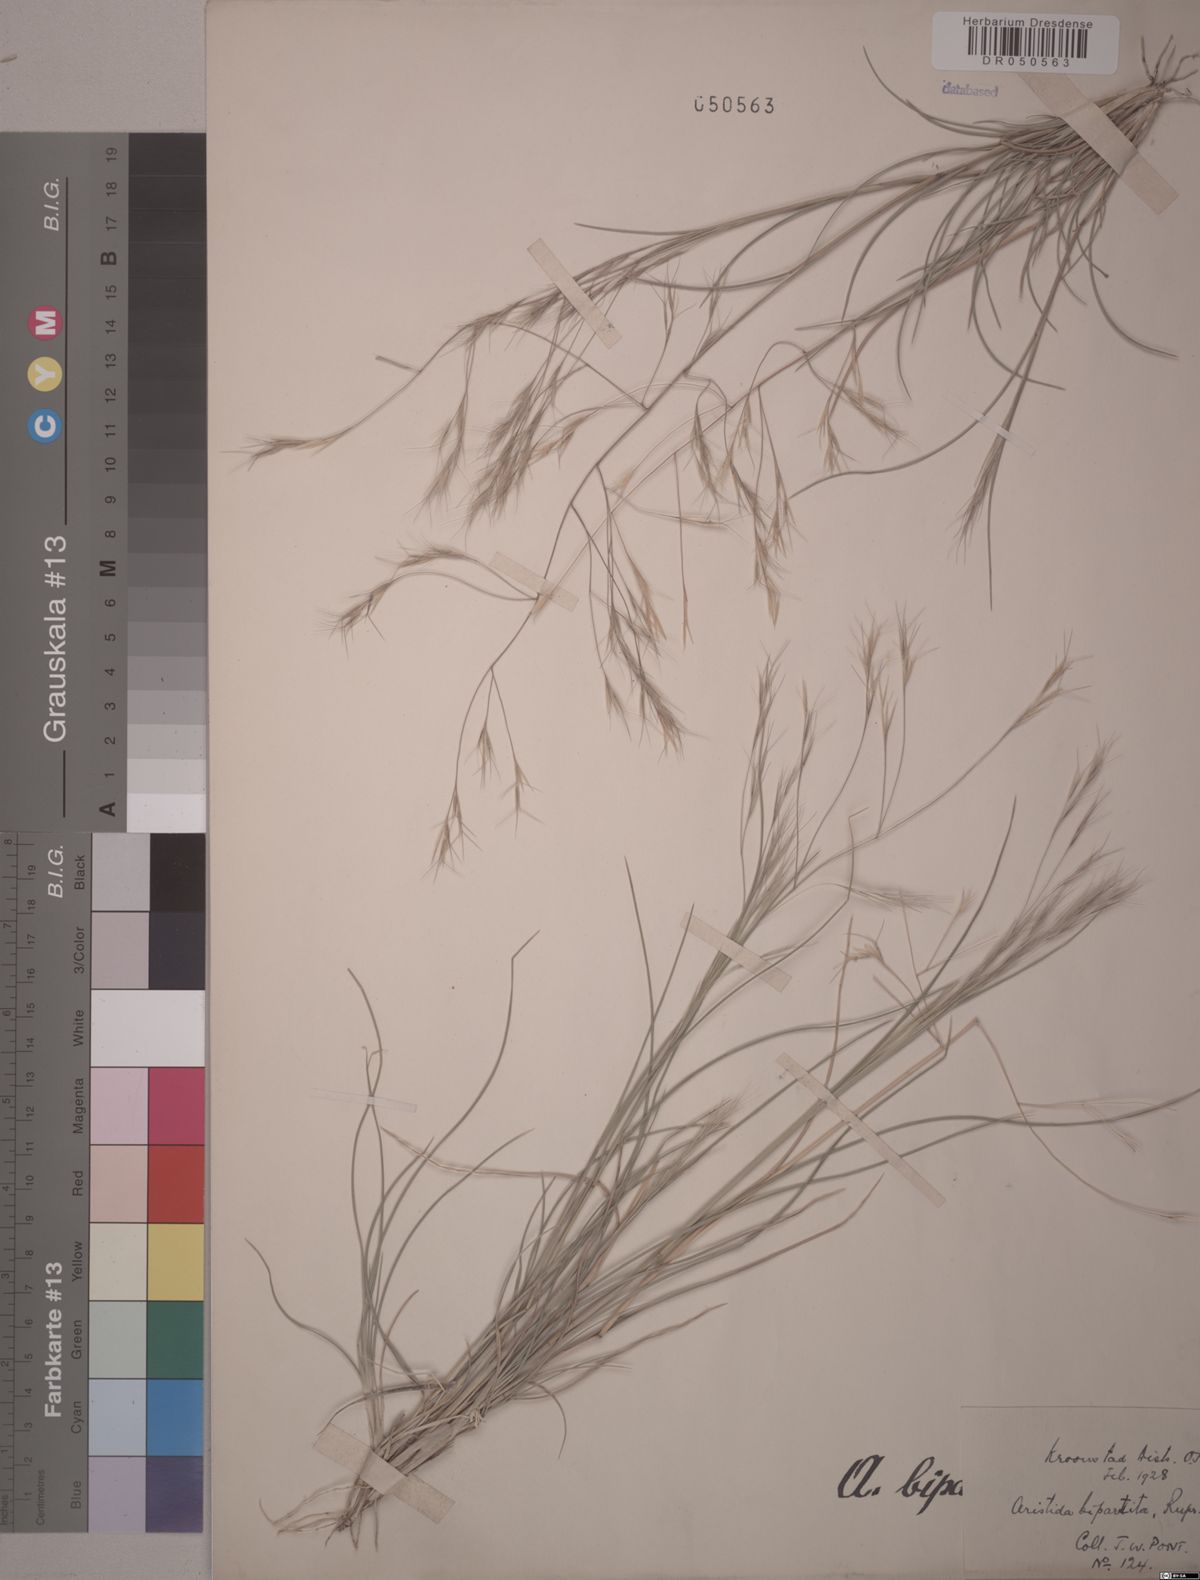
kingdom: Plantae
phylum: Tracheophyta
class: Liliopsida
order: Poales
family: Poaceae
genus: Aristida
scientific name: Aristida bipartita
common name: Three-awn rolling grass
